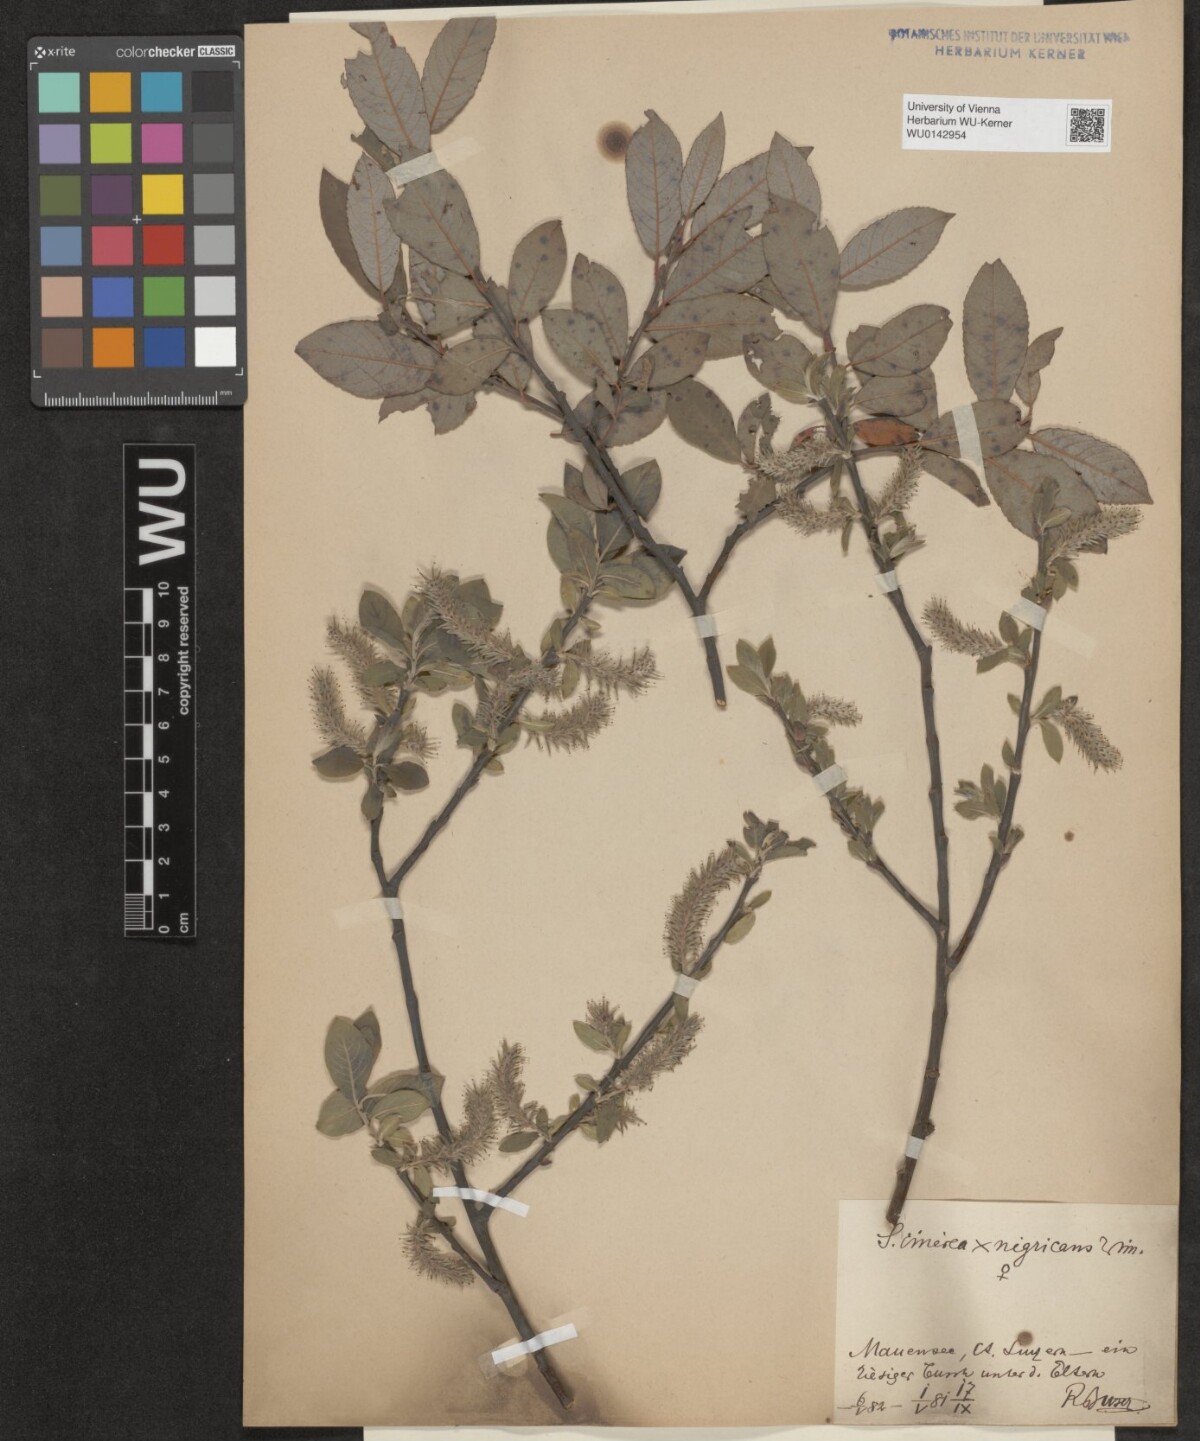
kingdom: Plantae
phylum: Tracheophyta
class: Magnoliopsida
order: Malpighiales
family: Salicaceae
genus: Salix
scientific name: Salix myrsinifolia
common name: Dark-leaved willow
